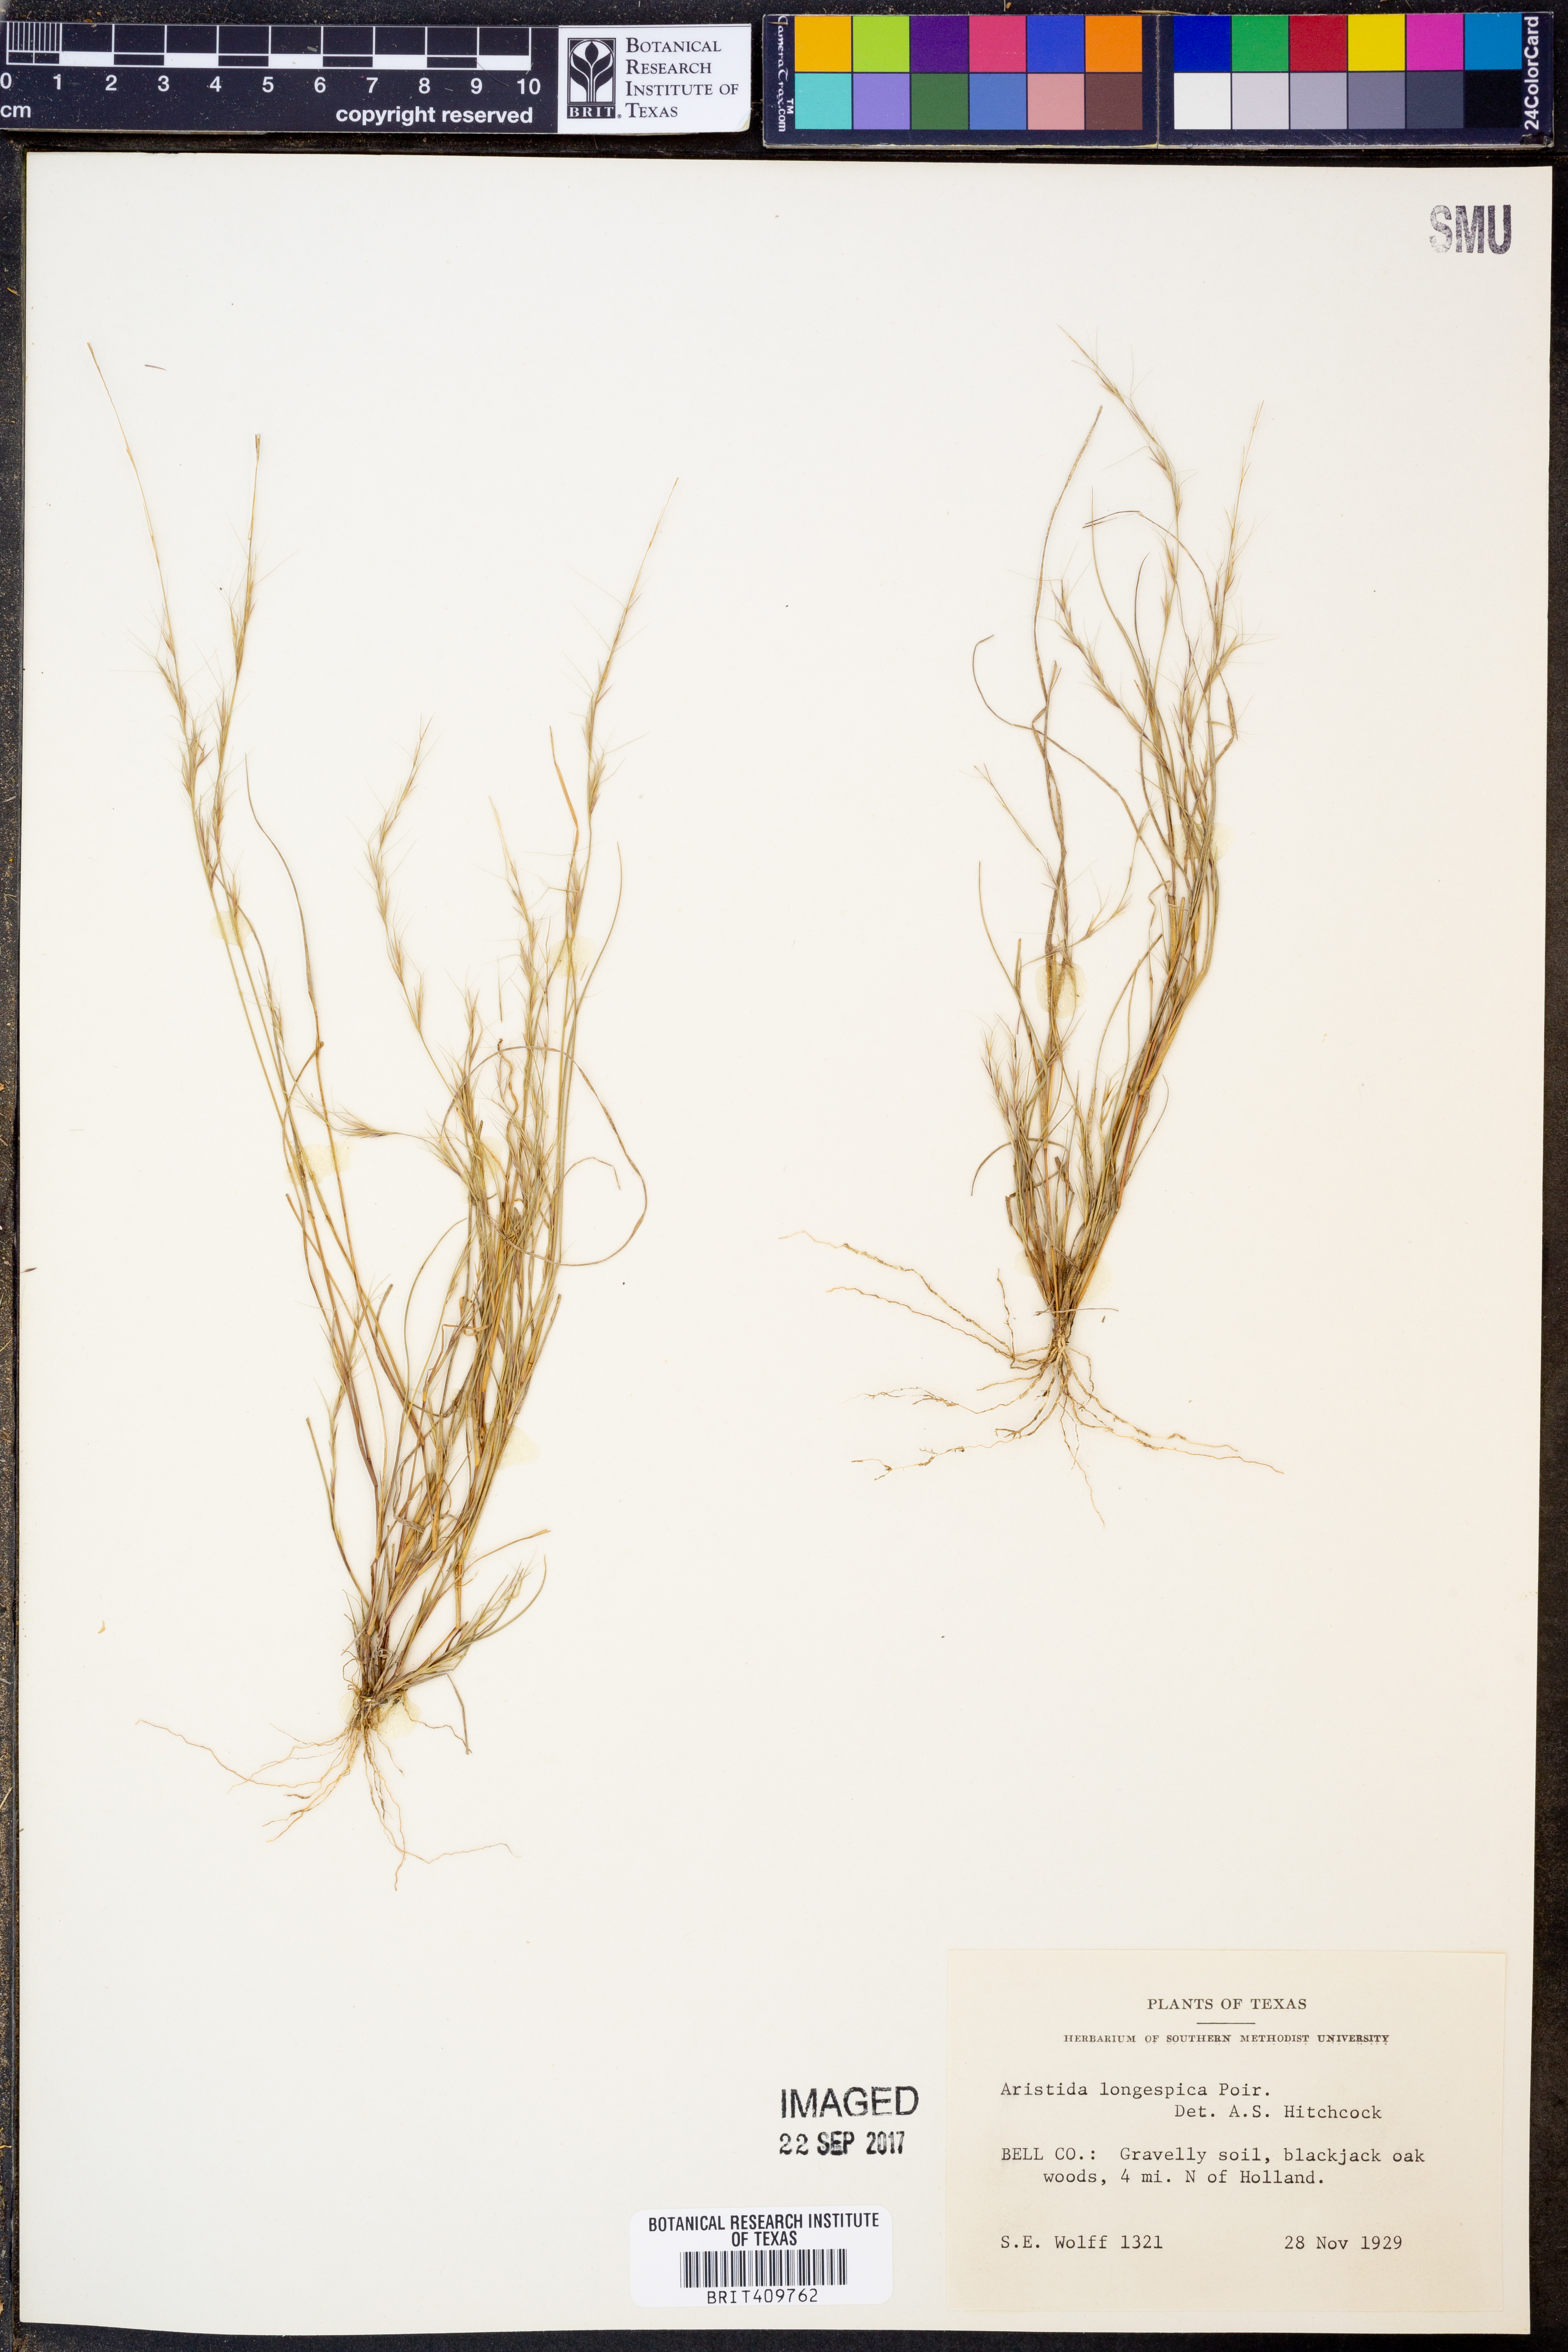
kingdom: Plantae
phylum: Tracheophyta
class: Liliopsida
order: Poales
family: Poaceae
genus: Aristida
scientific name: Aristida longespica
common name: Long-spiked triple-awned grass
